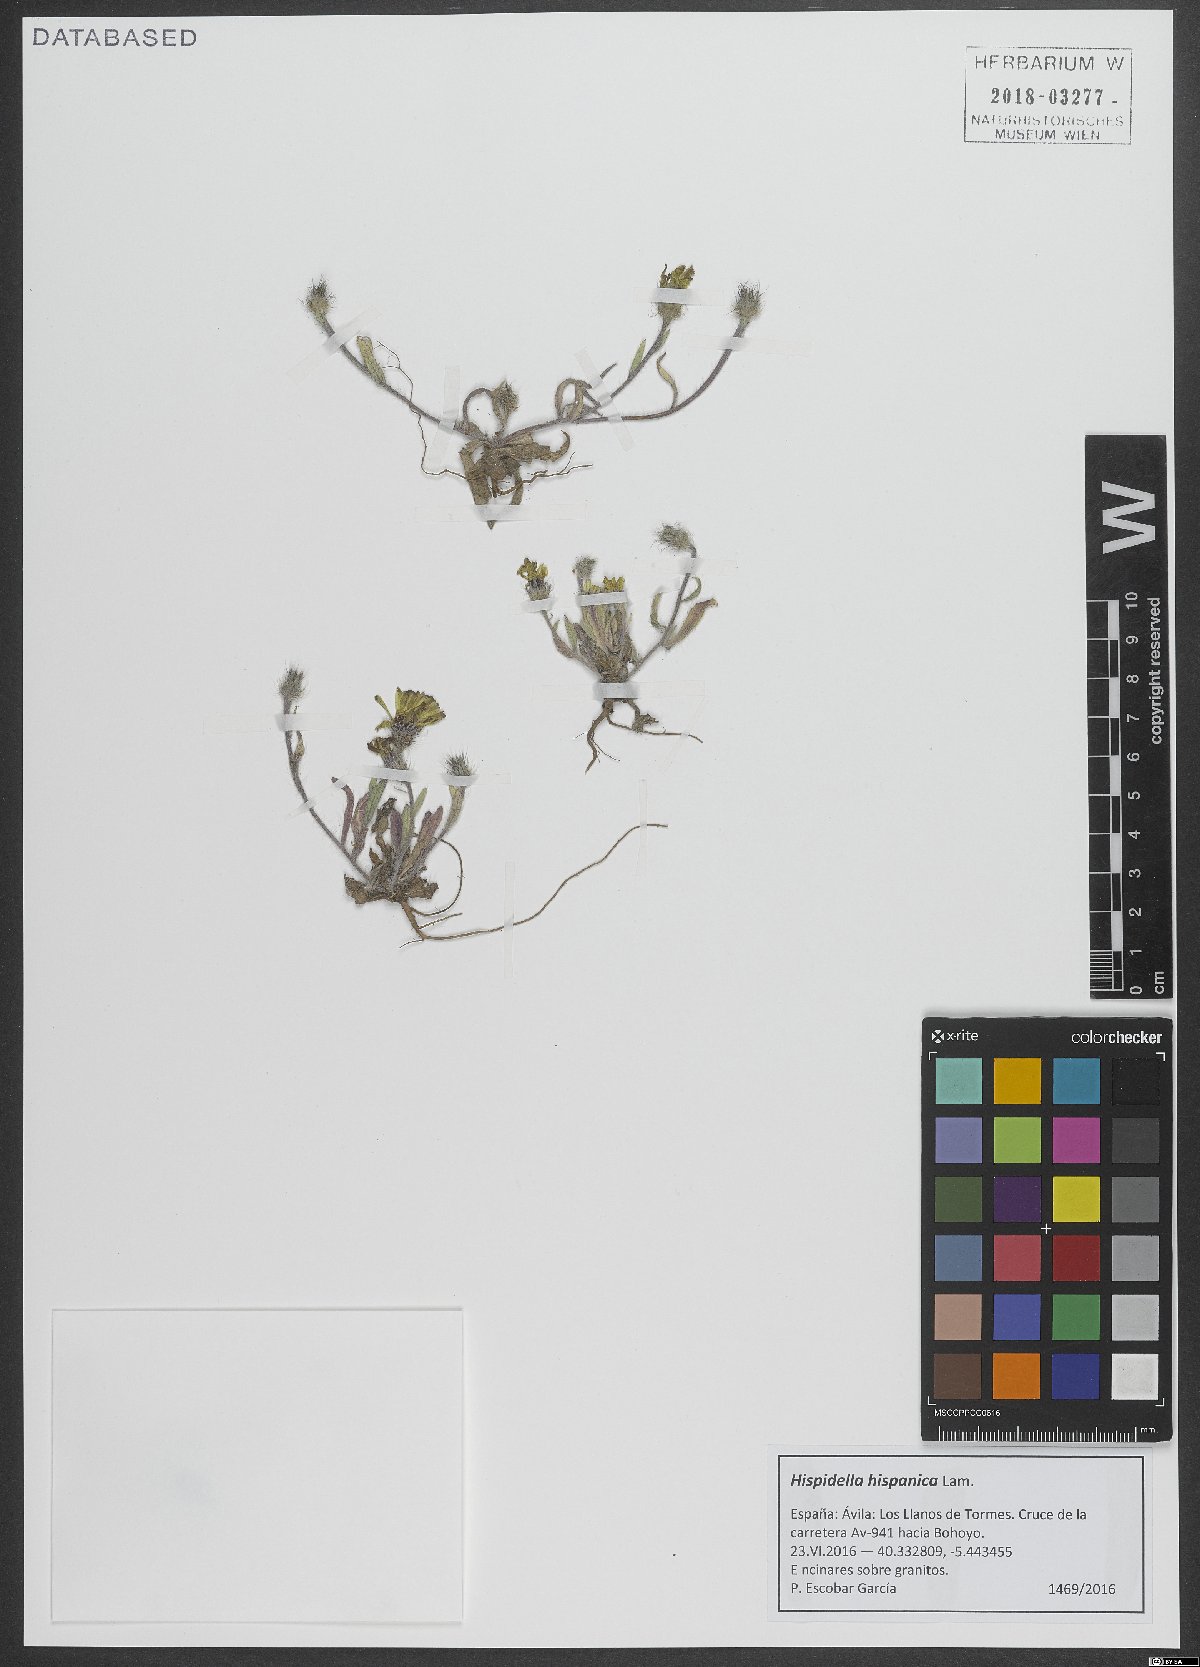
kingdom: Plantae
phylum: Tracheophyta
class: Magnoliopsida
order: Asterales
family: Asteraceae
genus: Hispidella
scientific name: Hispidella hispanica
